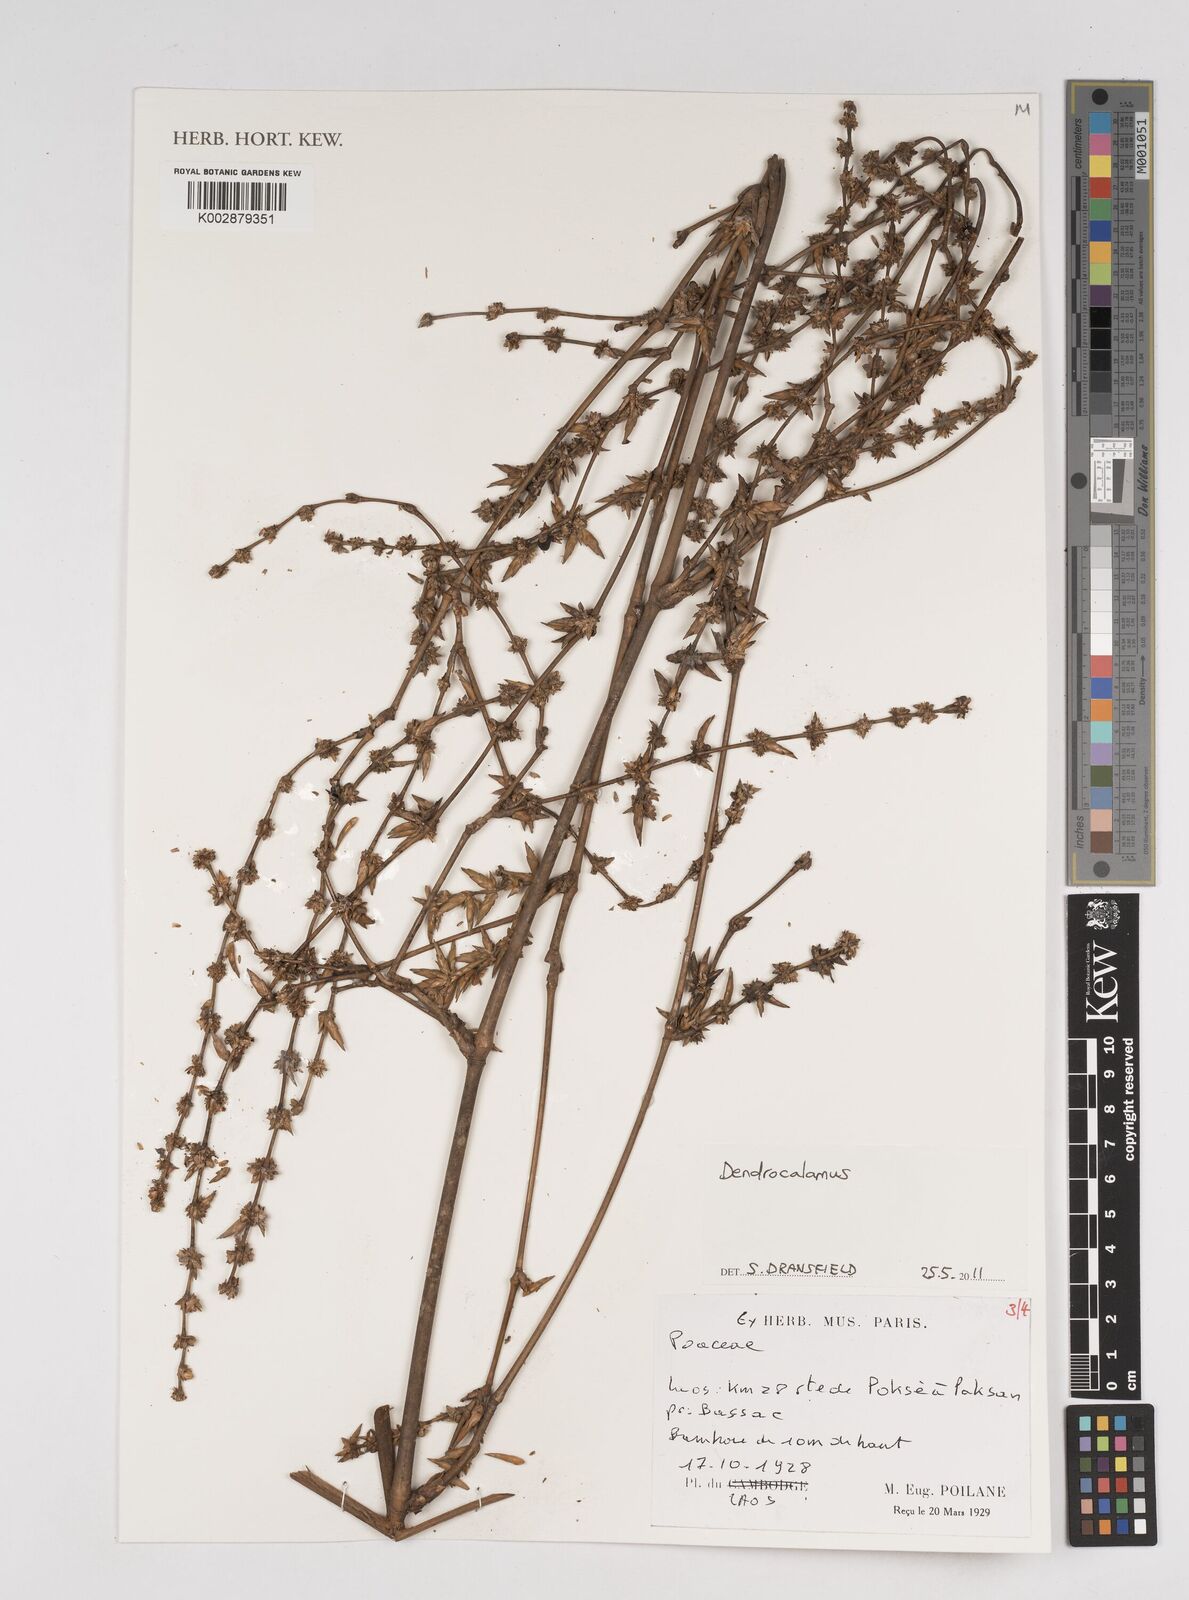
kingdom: Plantae
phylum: Tracheophyta
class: Liliopsida
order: Poales
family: Poaceae
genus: Dendrocalamus
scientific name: Dendrocalamus
